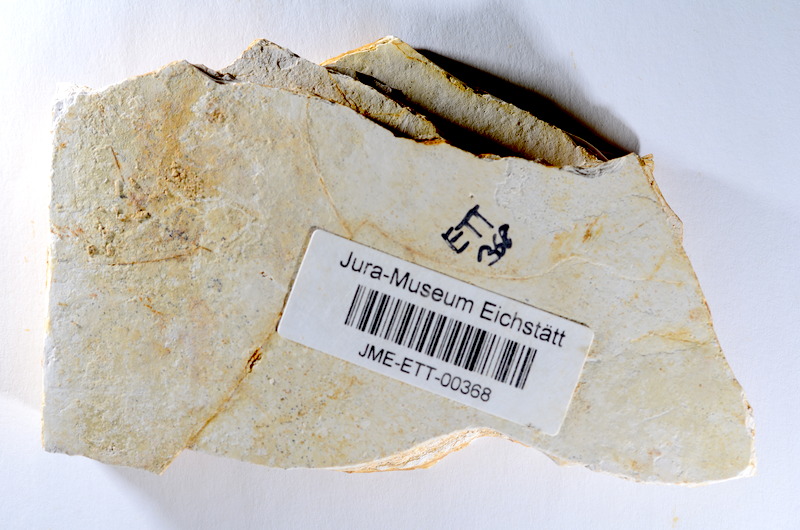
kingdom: Animalia
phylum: Chordata
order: Salmoniformes
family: Orthogonikleithridae
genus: Orthogonikleithrus
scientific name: Orthogonikleithrus hoelli
